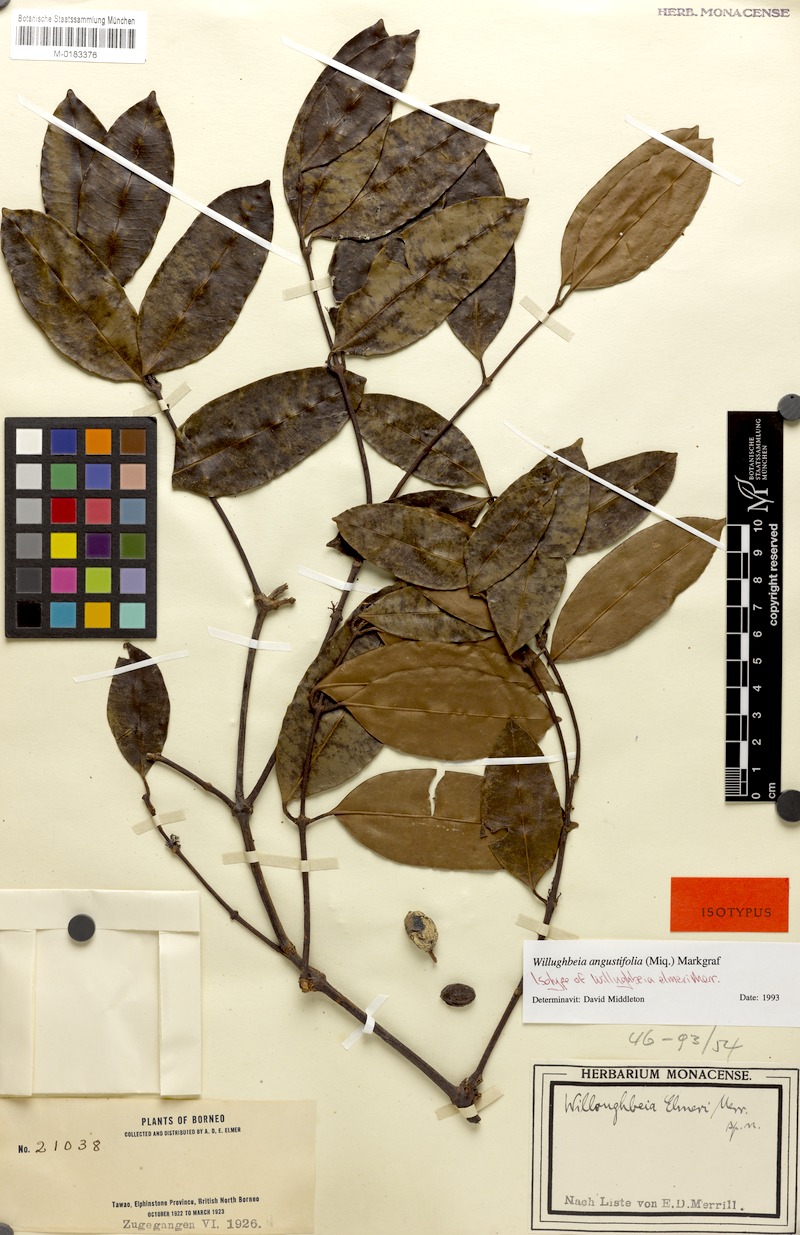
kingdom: Plantae
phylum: Tracheophyta
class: Magnoliopsida
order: Gentianales
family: Apocynaceae
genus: Willughbeia
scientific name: Willughbeia angustifolia
